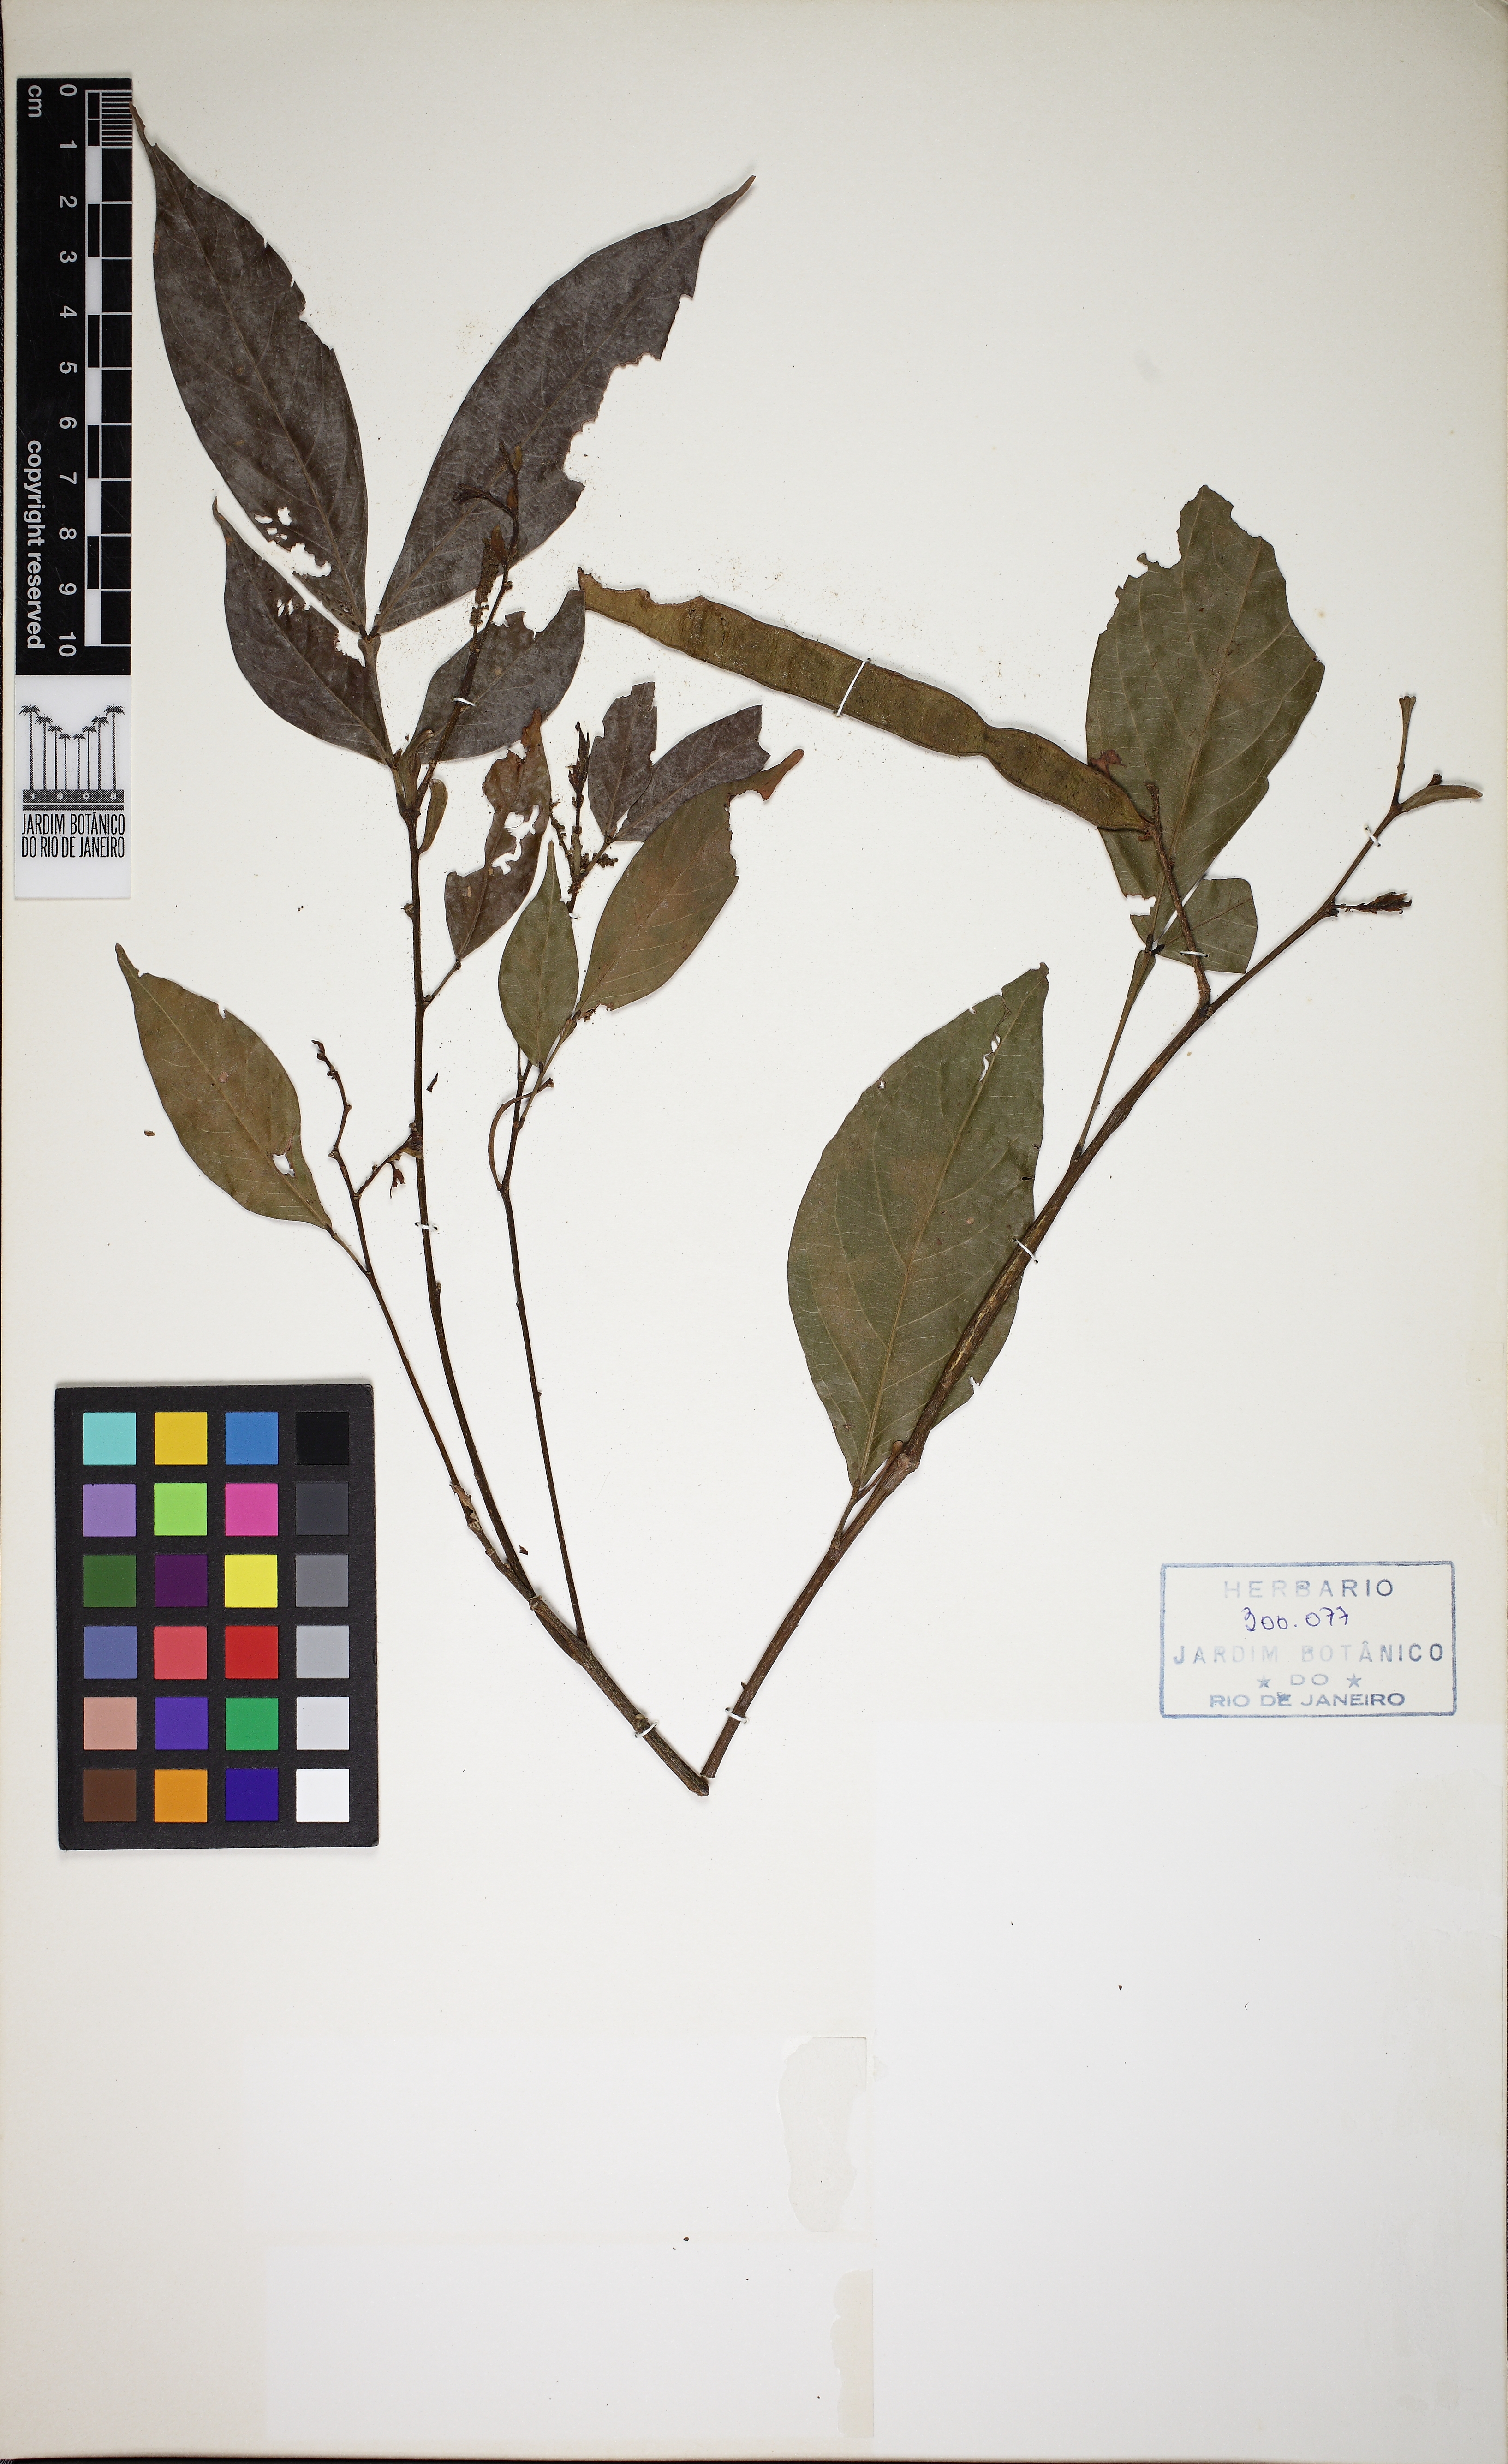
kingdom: Plantae
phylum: Tracheophyta
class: Magnoliopsida
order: Fabales
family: Fabaceae
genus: Inga
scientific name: Inga marginata
